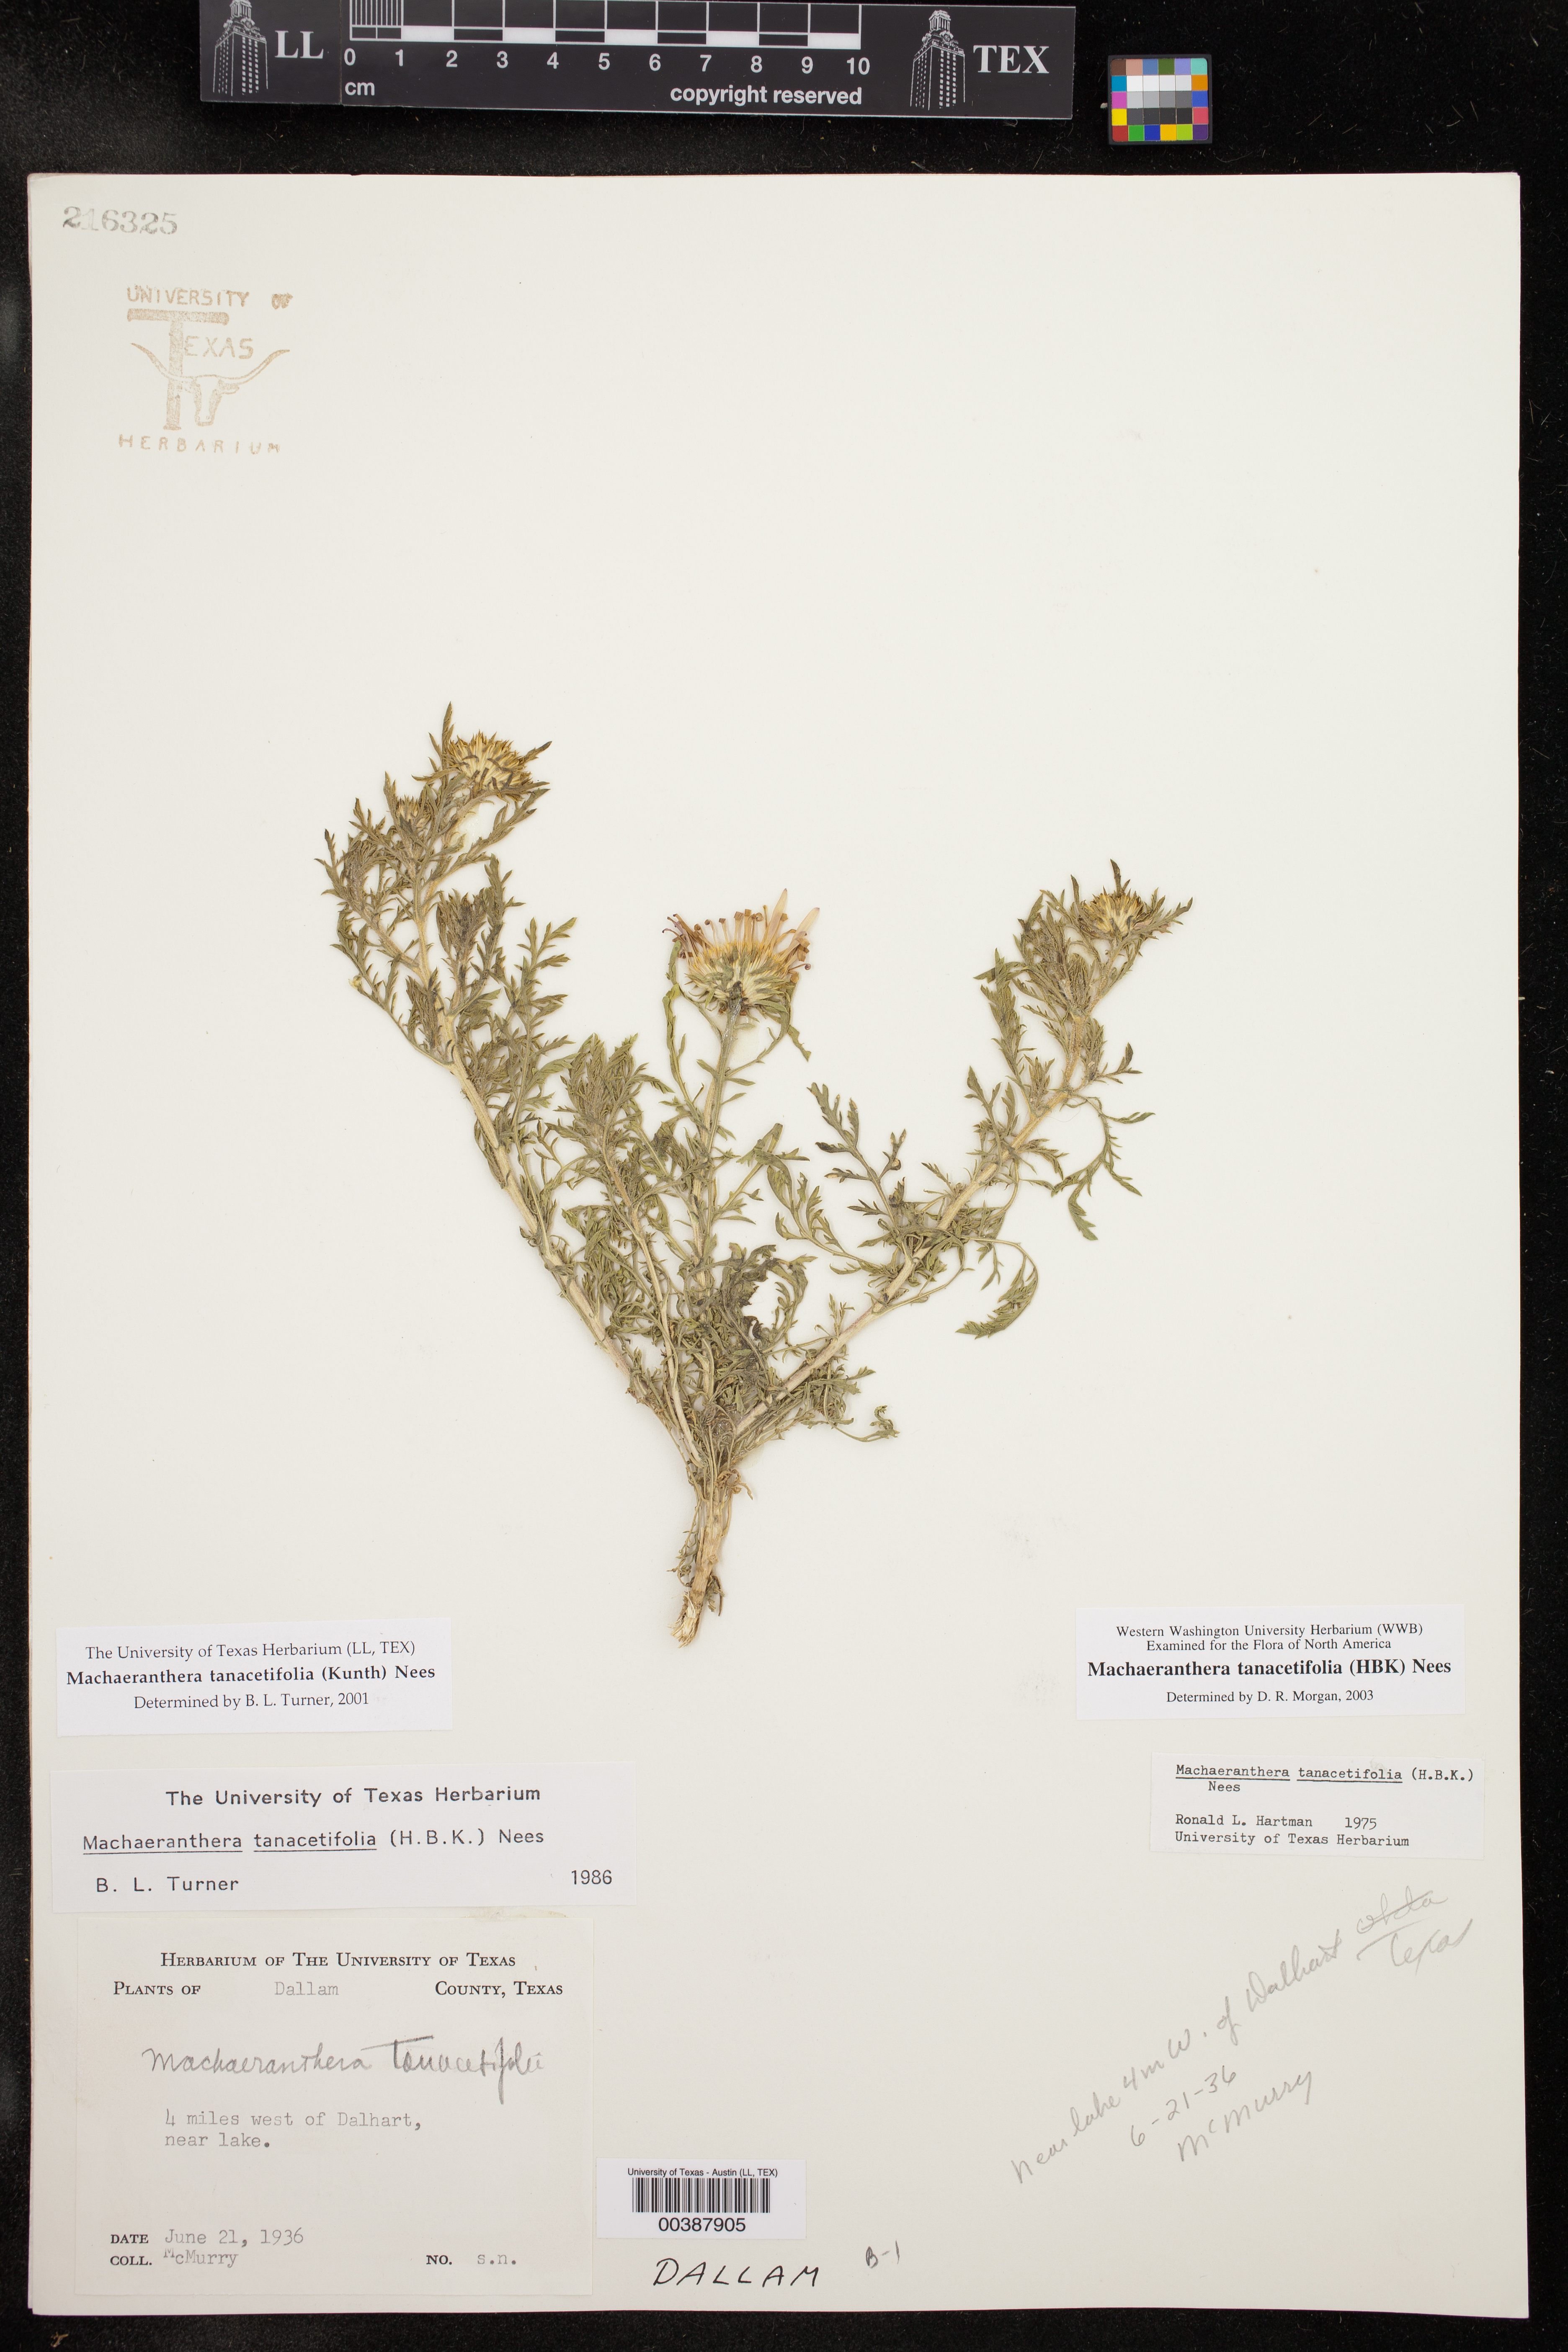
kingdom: Plantae
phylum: Tracheophyta
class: Magnoliopsida
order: Asterales
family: Asteraceae
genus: Machaeranthera
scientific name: Machaeranthera tanacetifolia
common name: Tansy-aster
